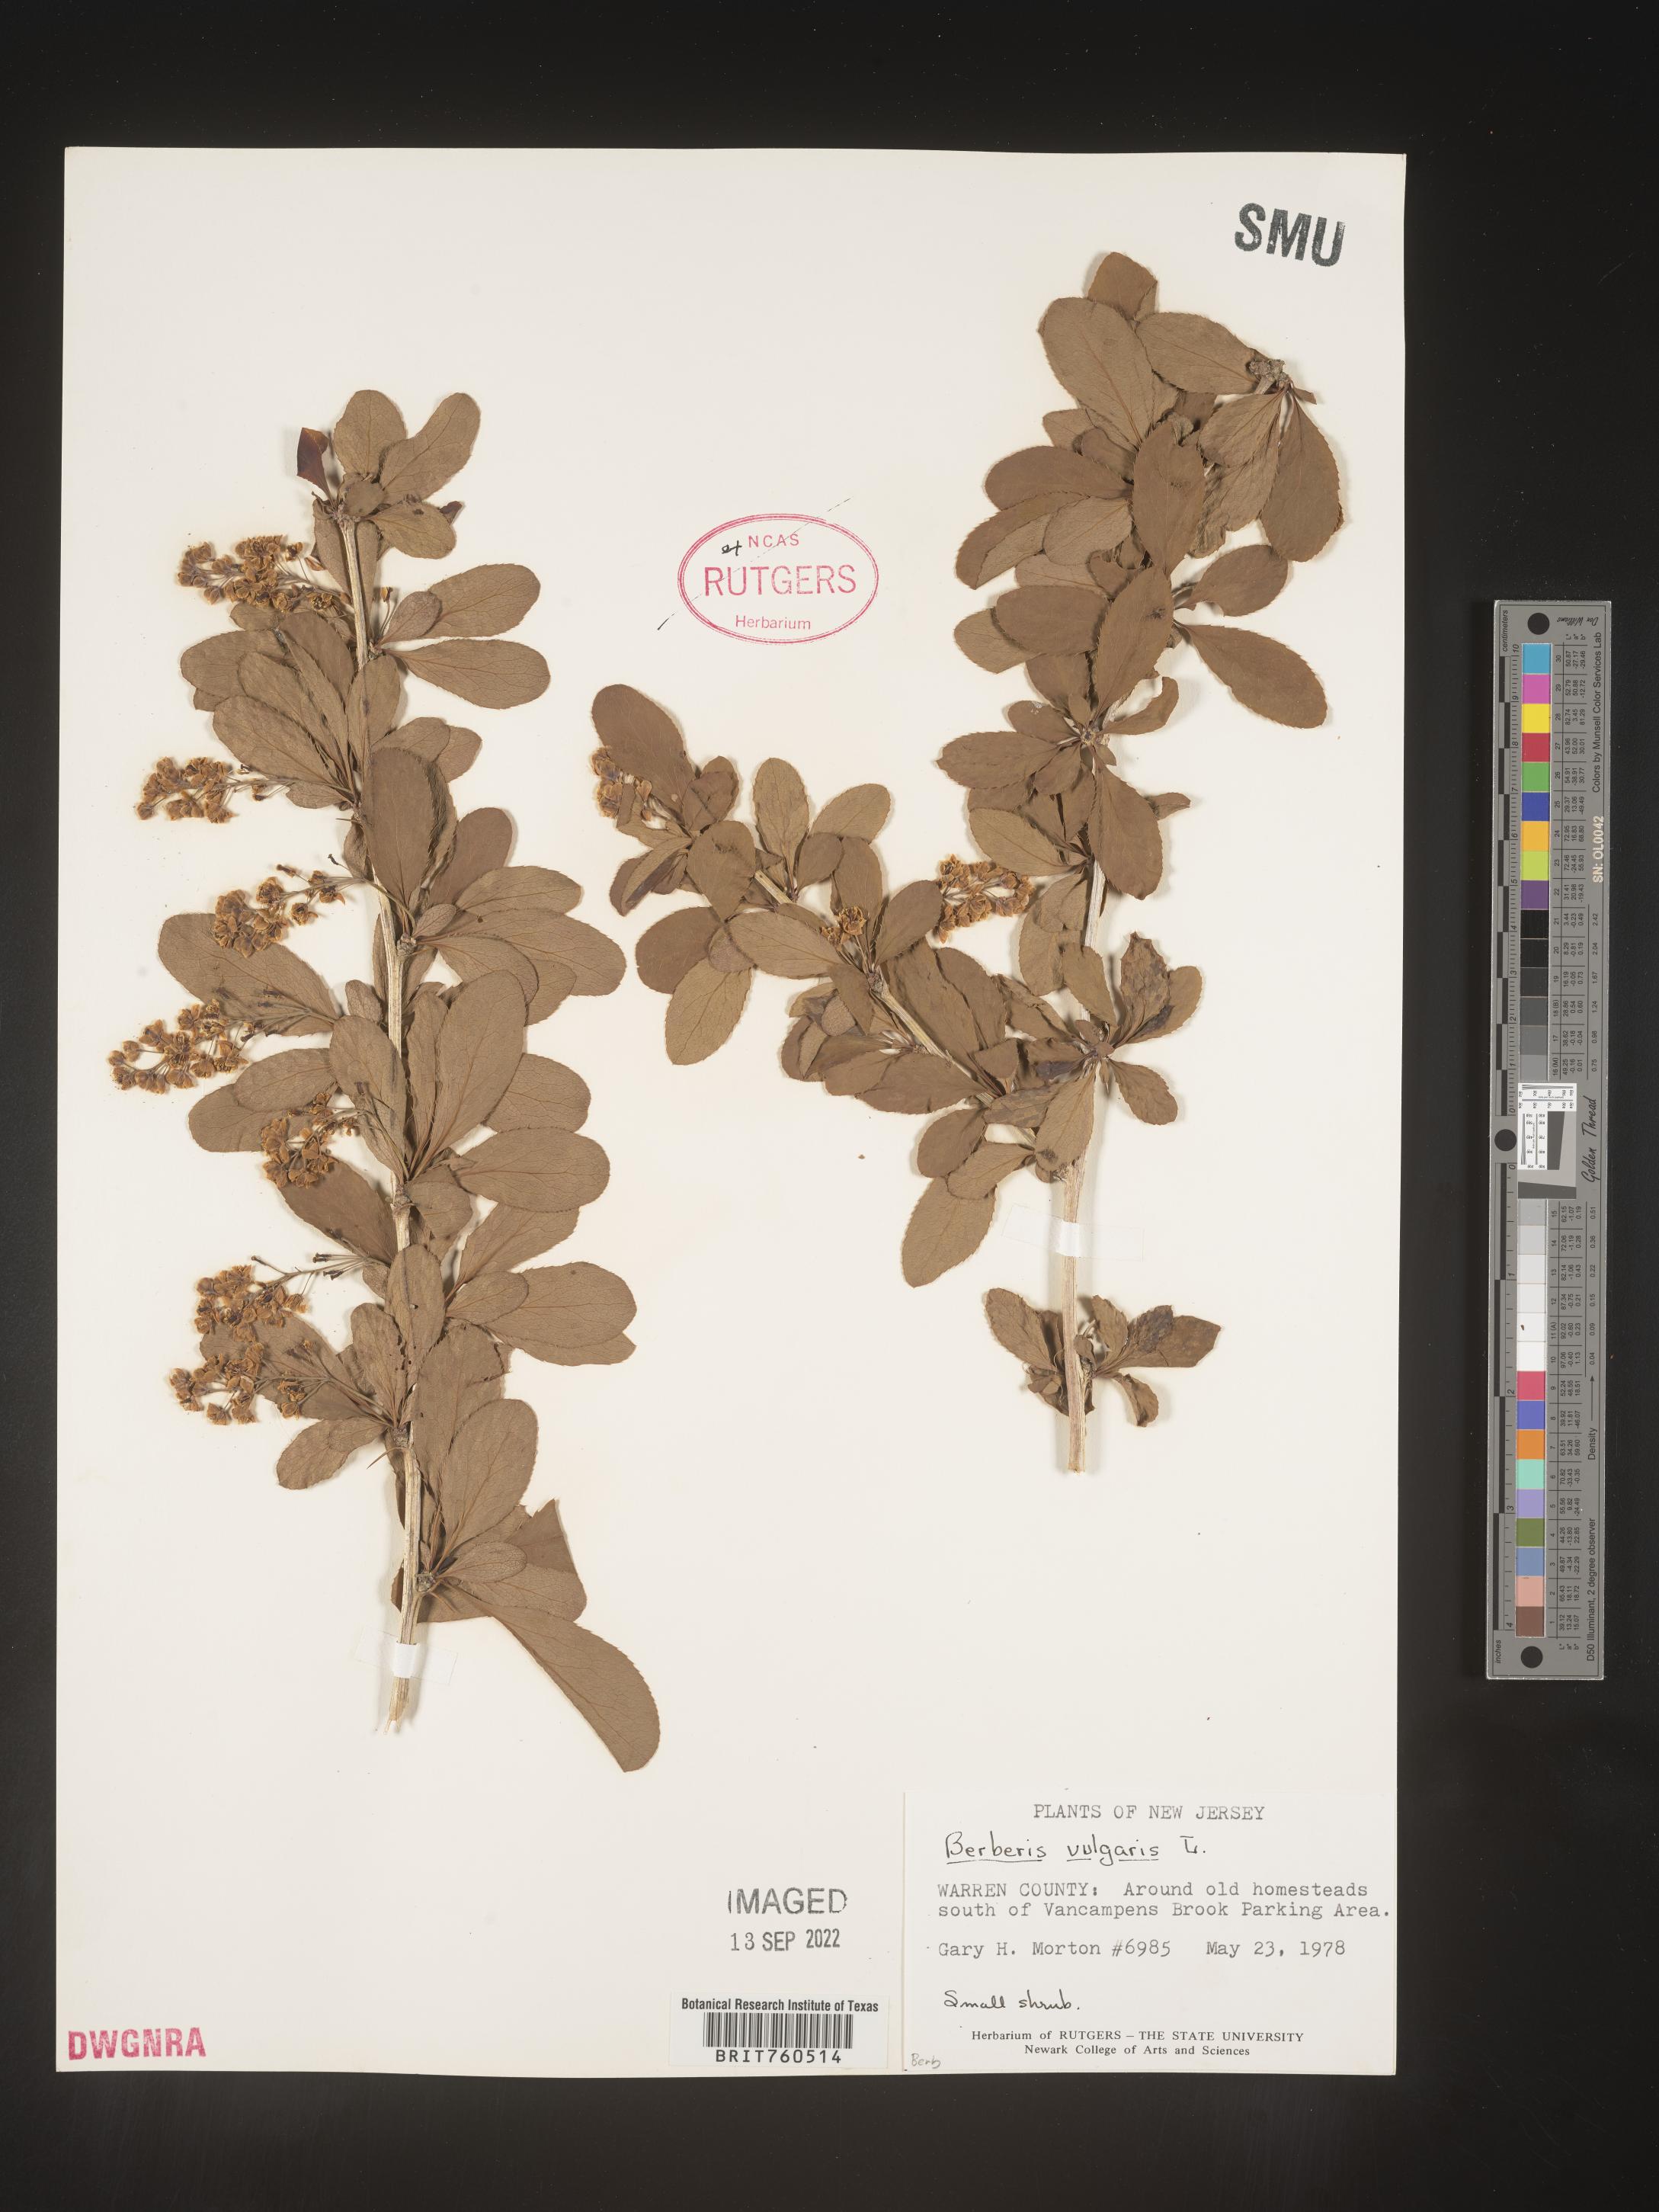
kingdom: Plantae
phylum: Tracheophyta
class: Magnoliopsida
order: Ranunculales
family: Berberidaceae
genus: Berberis
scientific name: Berberis
